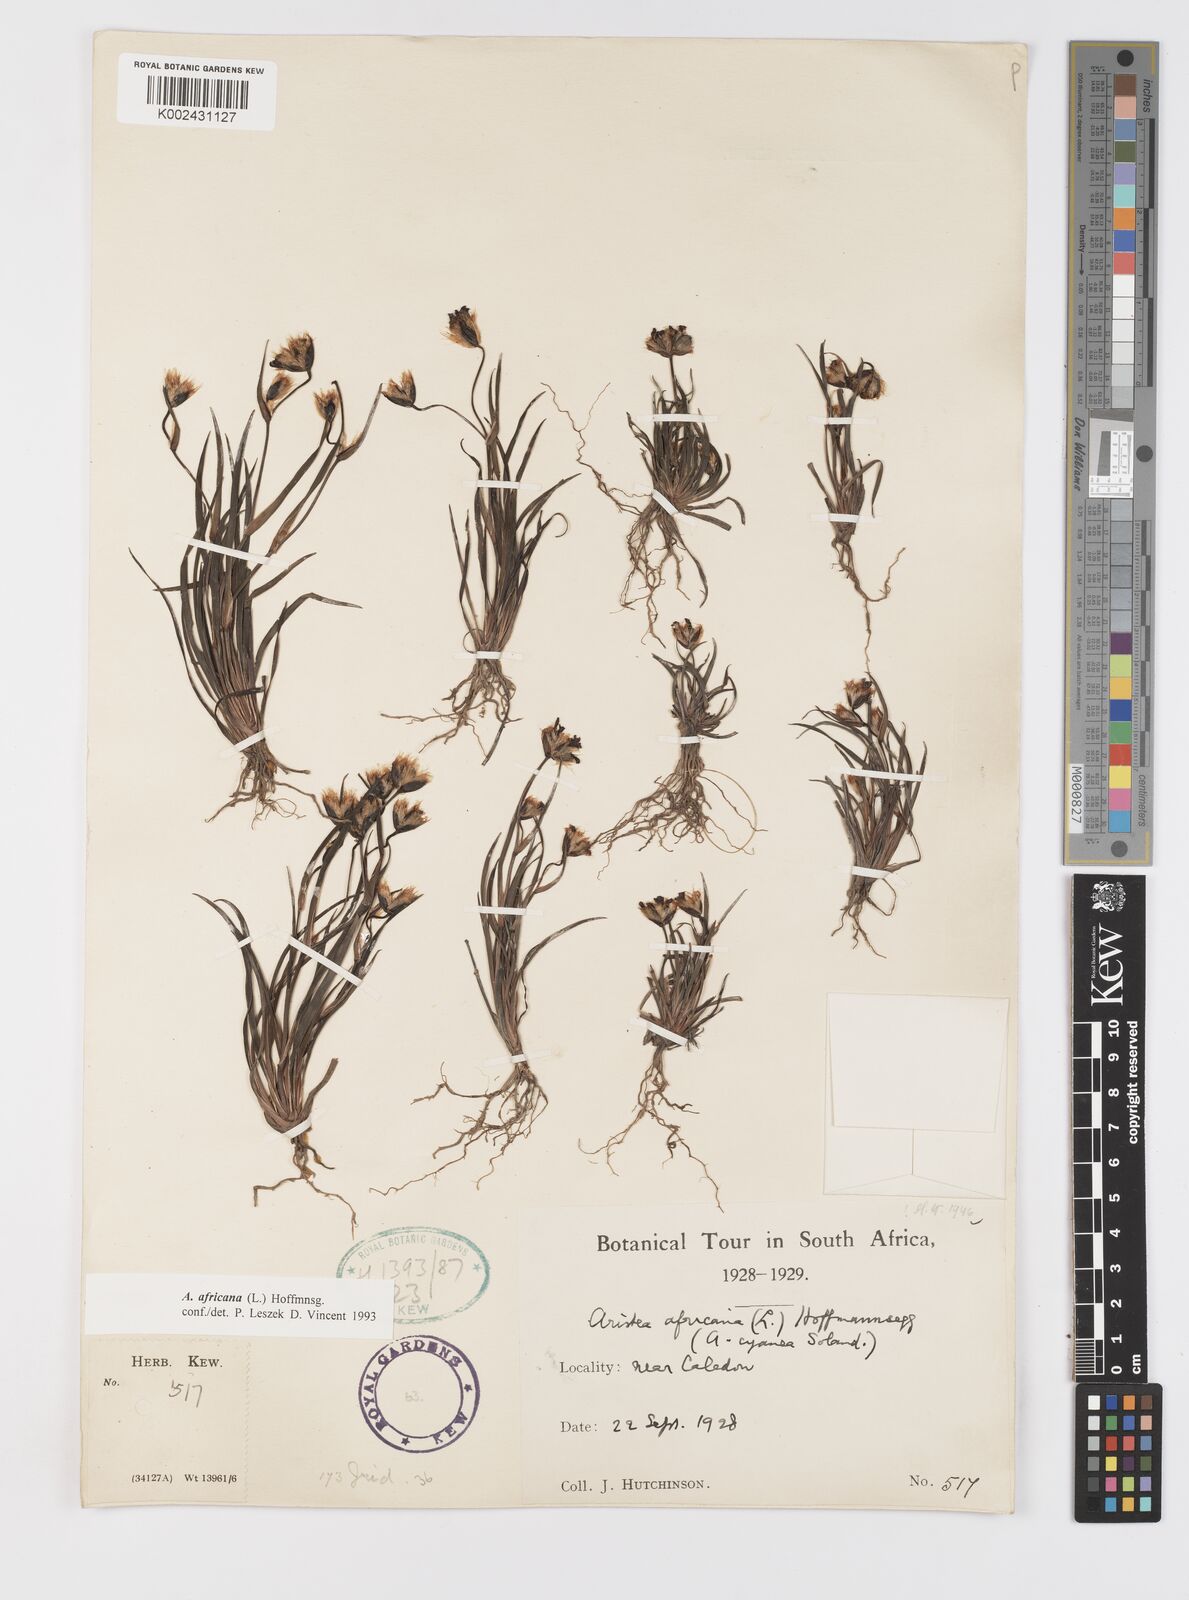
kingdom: Plantae
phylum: Tracheophyta
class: Liliopsida
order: Asparagales
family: Iridaceae
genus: Aristea
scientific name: Aristea africana
